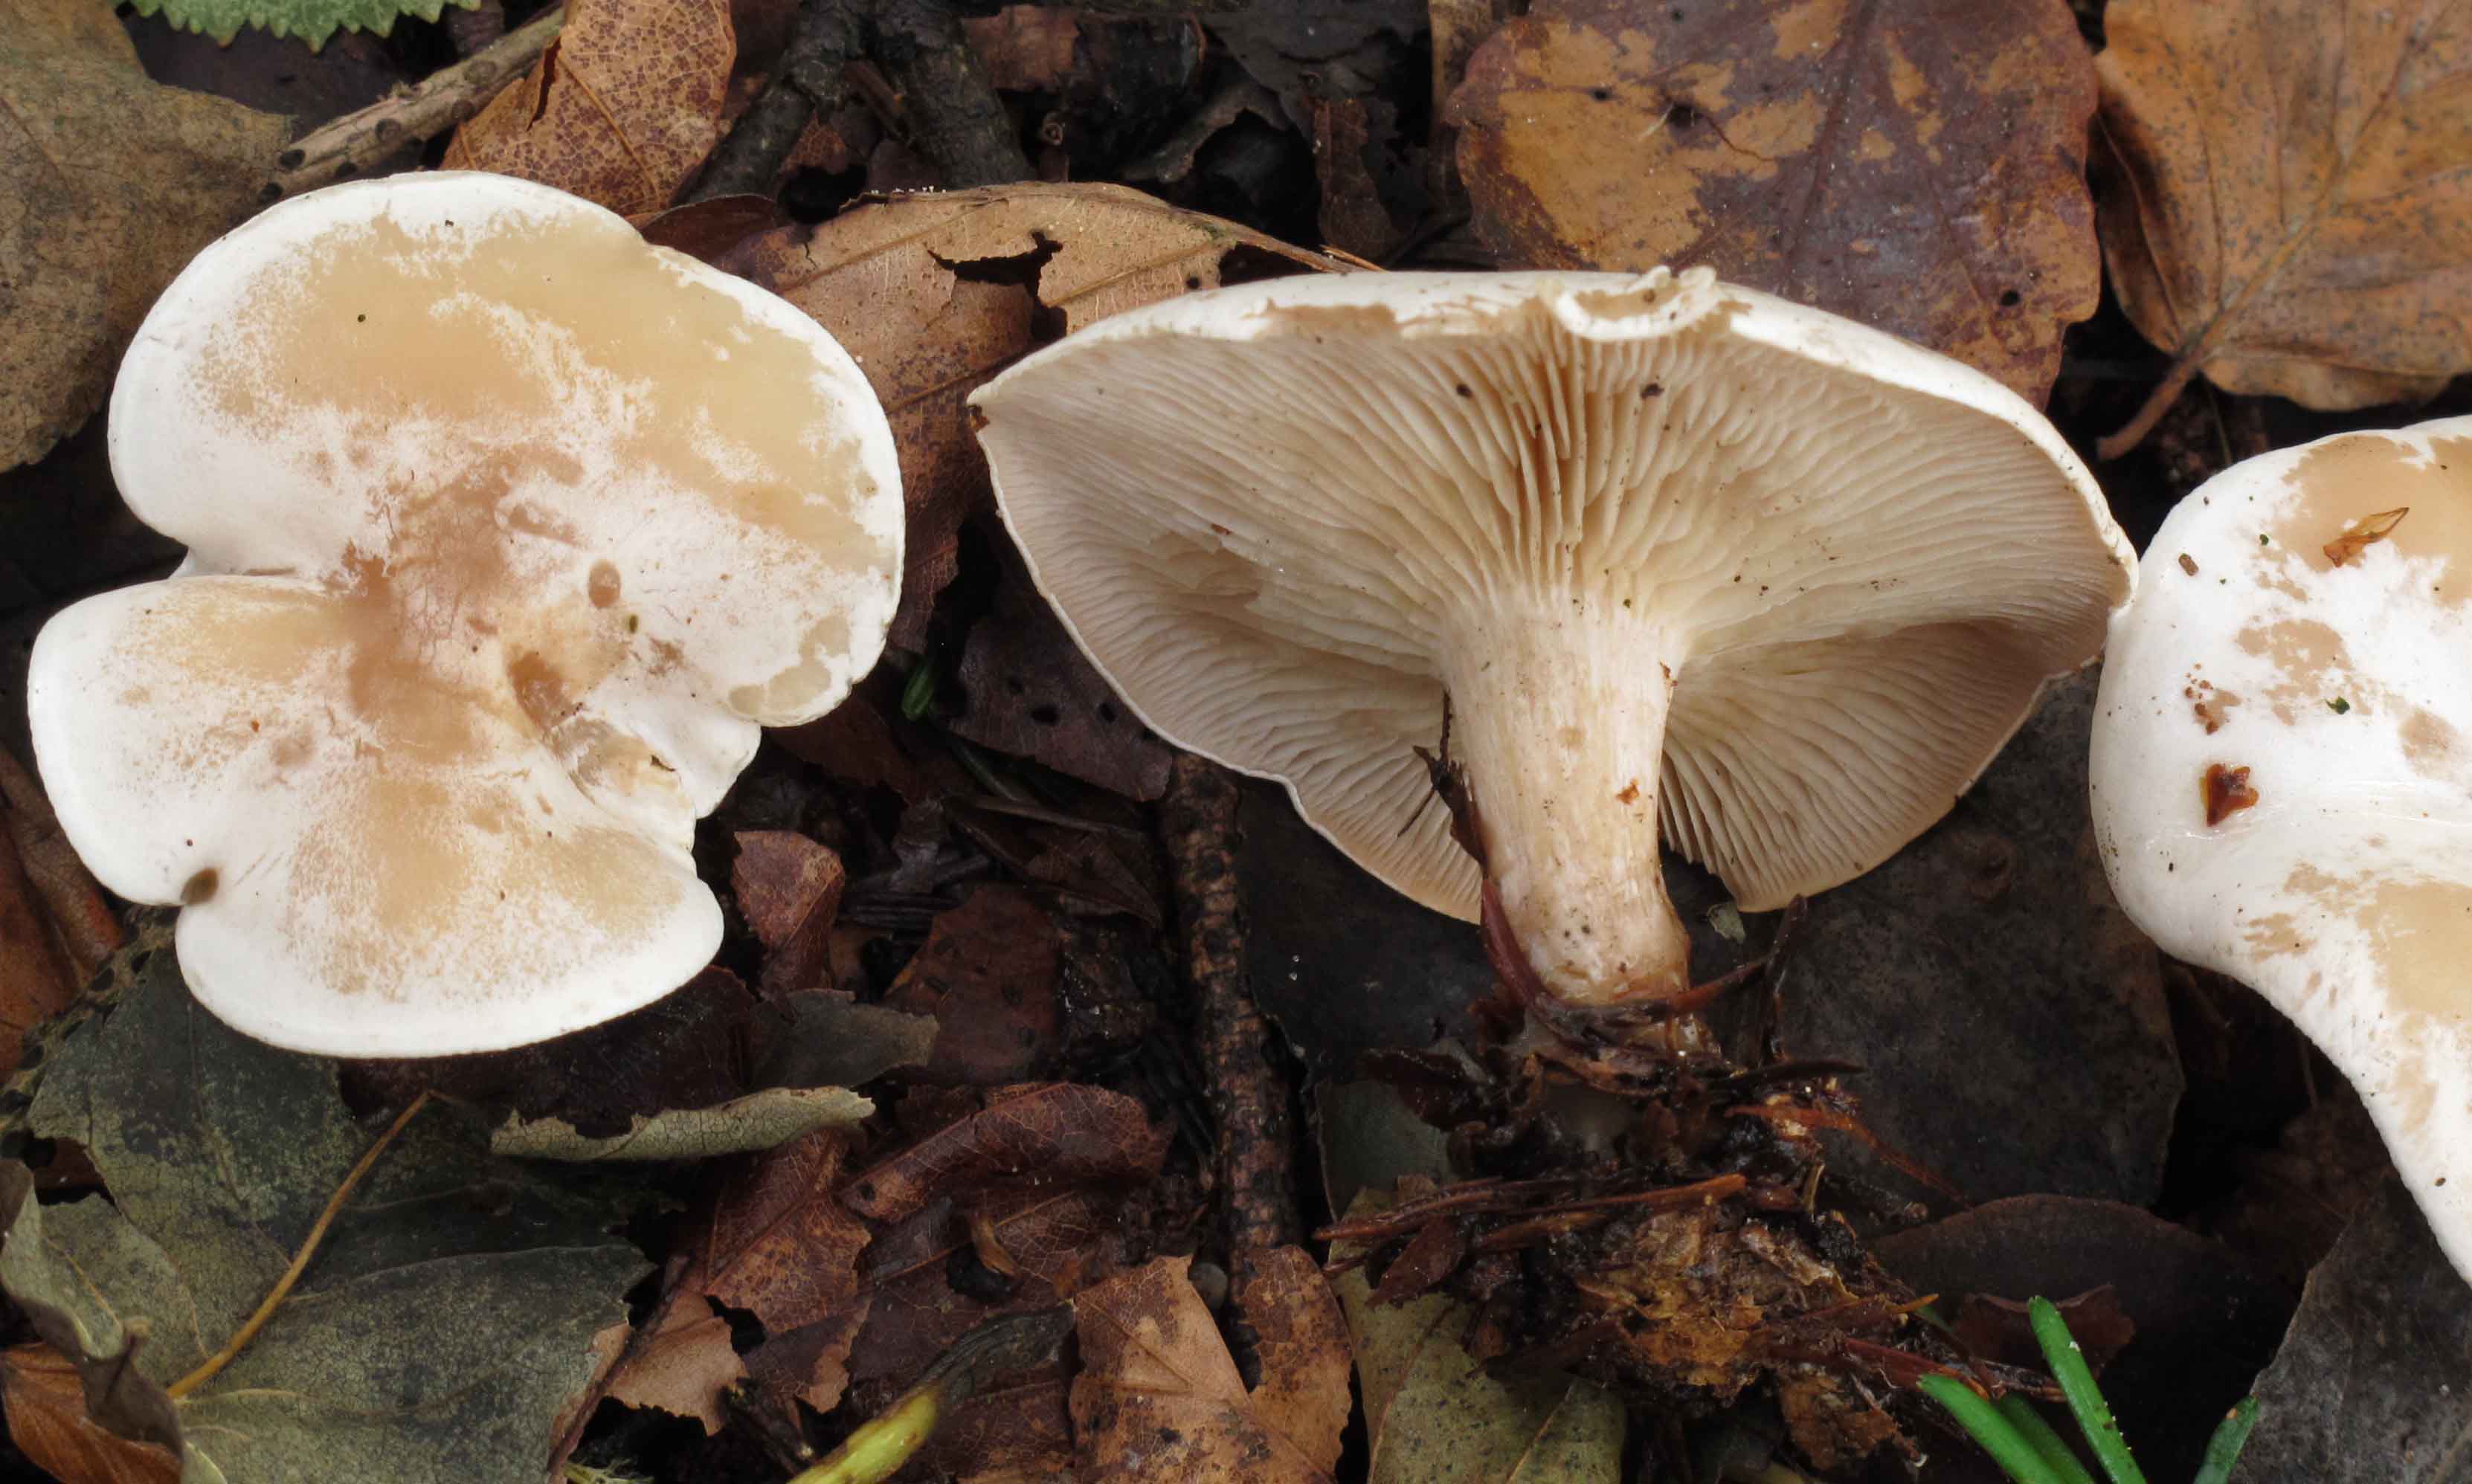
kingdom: Fungi
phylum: Basidiomycota
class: Agaricomycetes
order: Agaricales
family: Tricholomataceae
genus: Clitocybe
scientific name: Clitocybe phyllophila
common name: løv-tragthat
